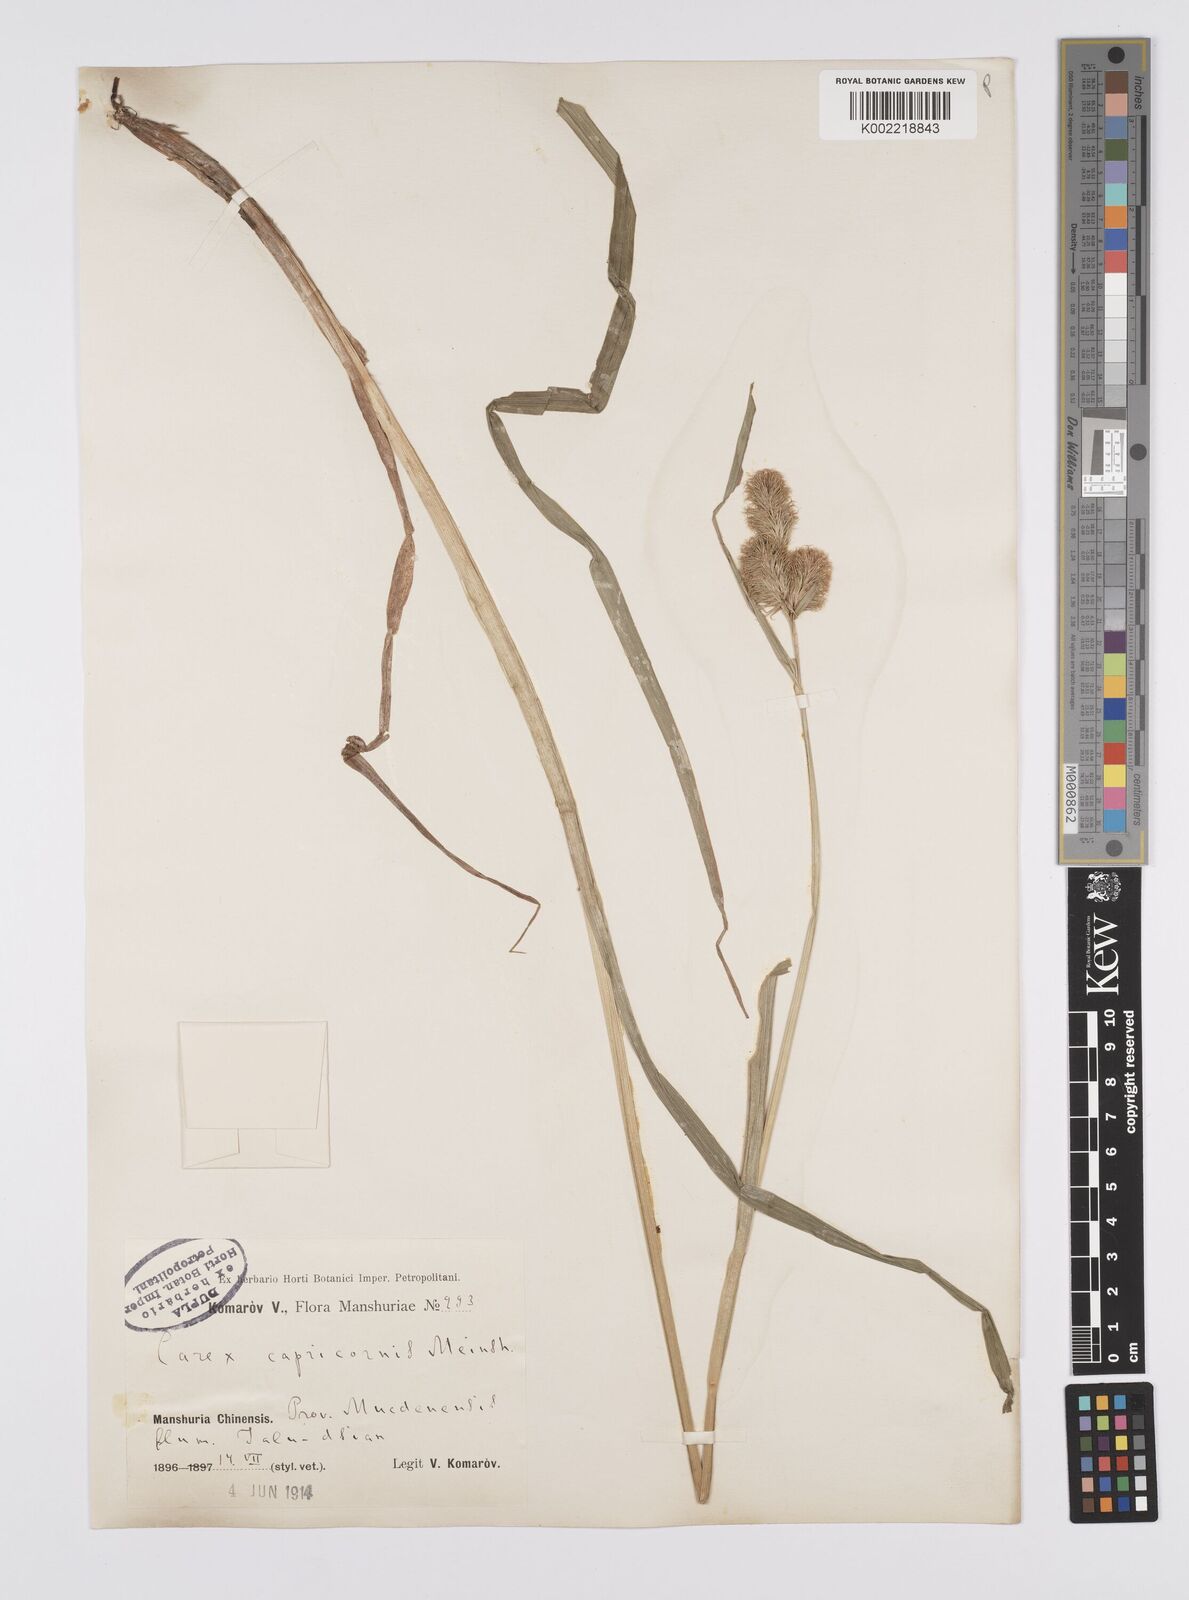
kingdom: Plantae
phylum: Tracheophyta
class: Liliopsida
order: Poales
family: Cyperaceae
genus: Carex
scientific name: Carex capricornis
